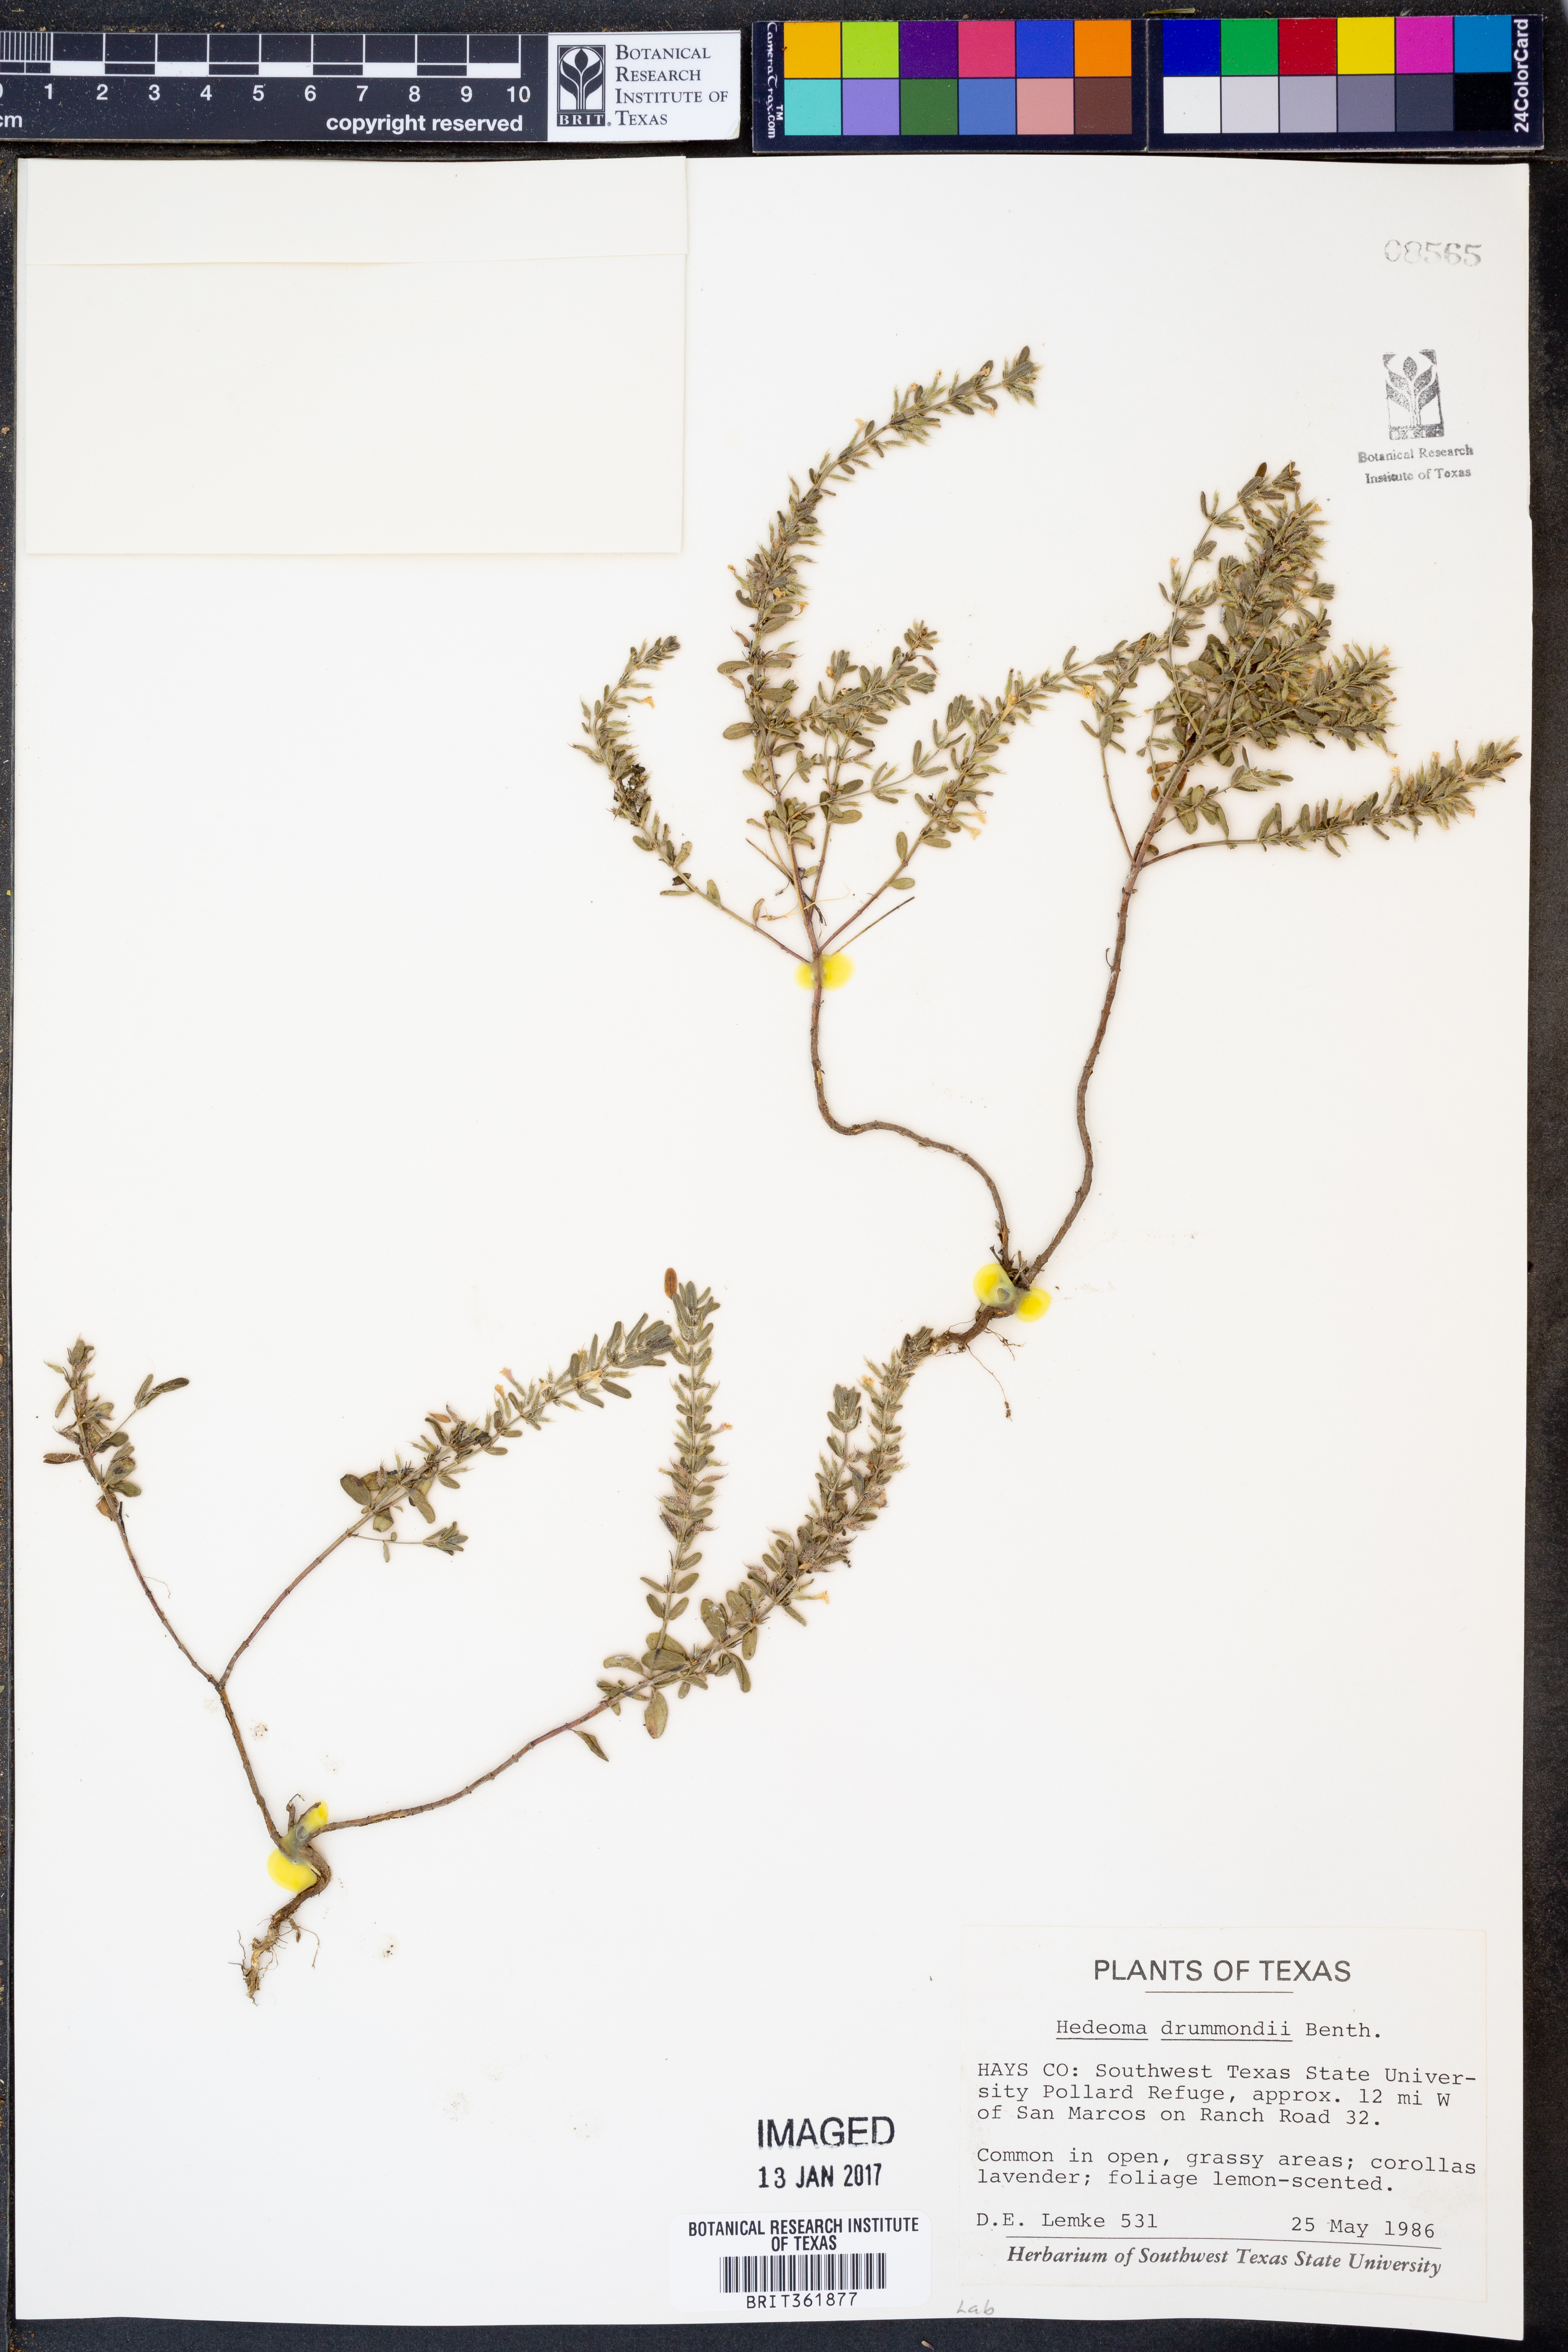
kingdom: Plantae
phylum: Tracheophyta
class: Magnoliopsida
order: Lamiales
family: Lamiaceae
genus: Hedeoma
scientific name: Hedeoma drummondii
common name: New mexico pennyroyal
